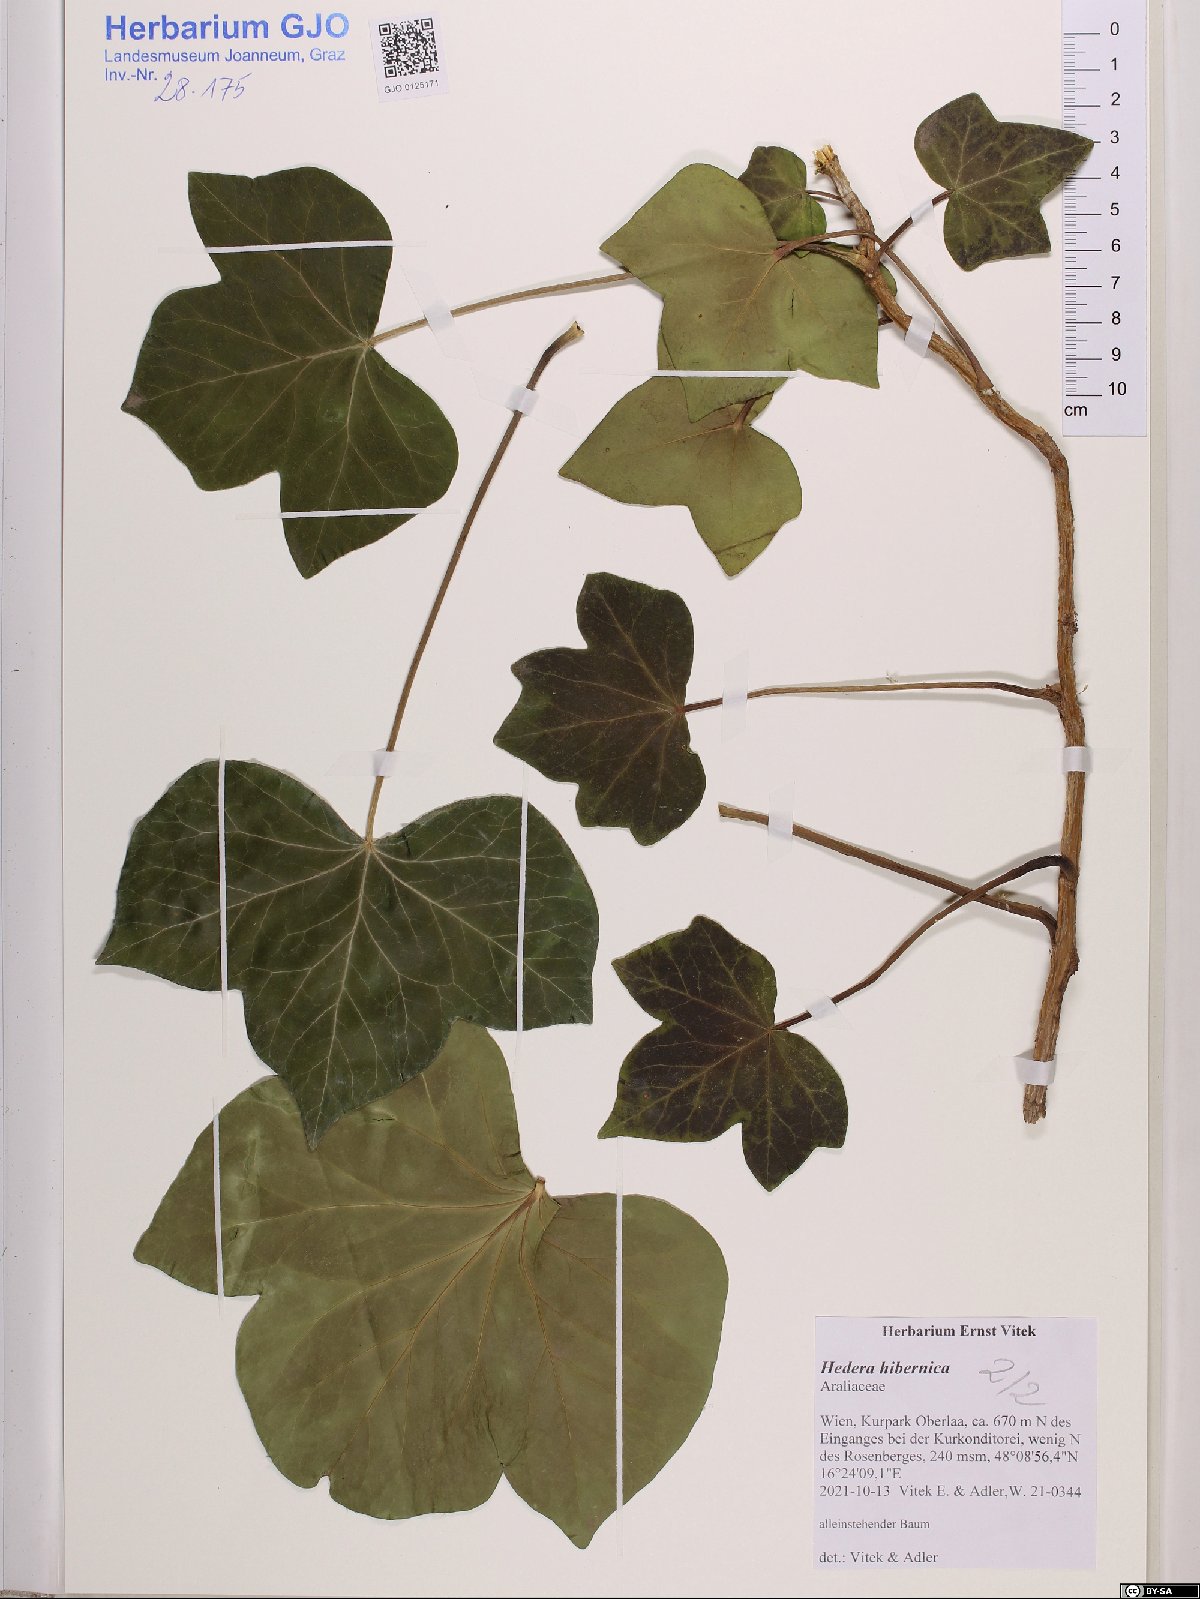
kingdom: Plantae
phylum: Tracheophyta
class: Magnoliopsida
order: Apiales
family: Araliaceae
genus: Hedera
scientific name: Hedera hibernica
